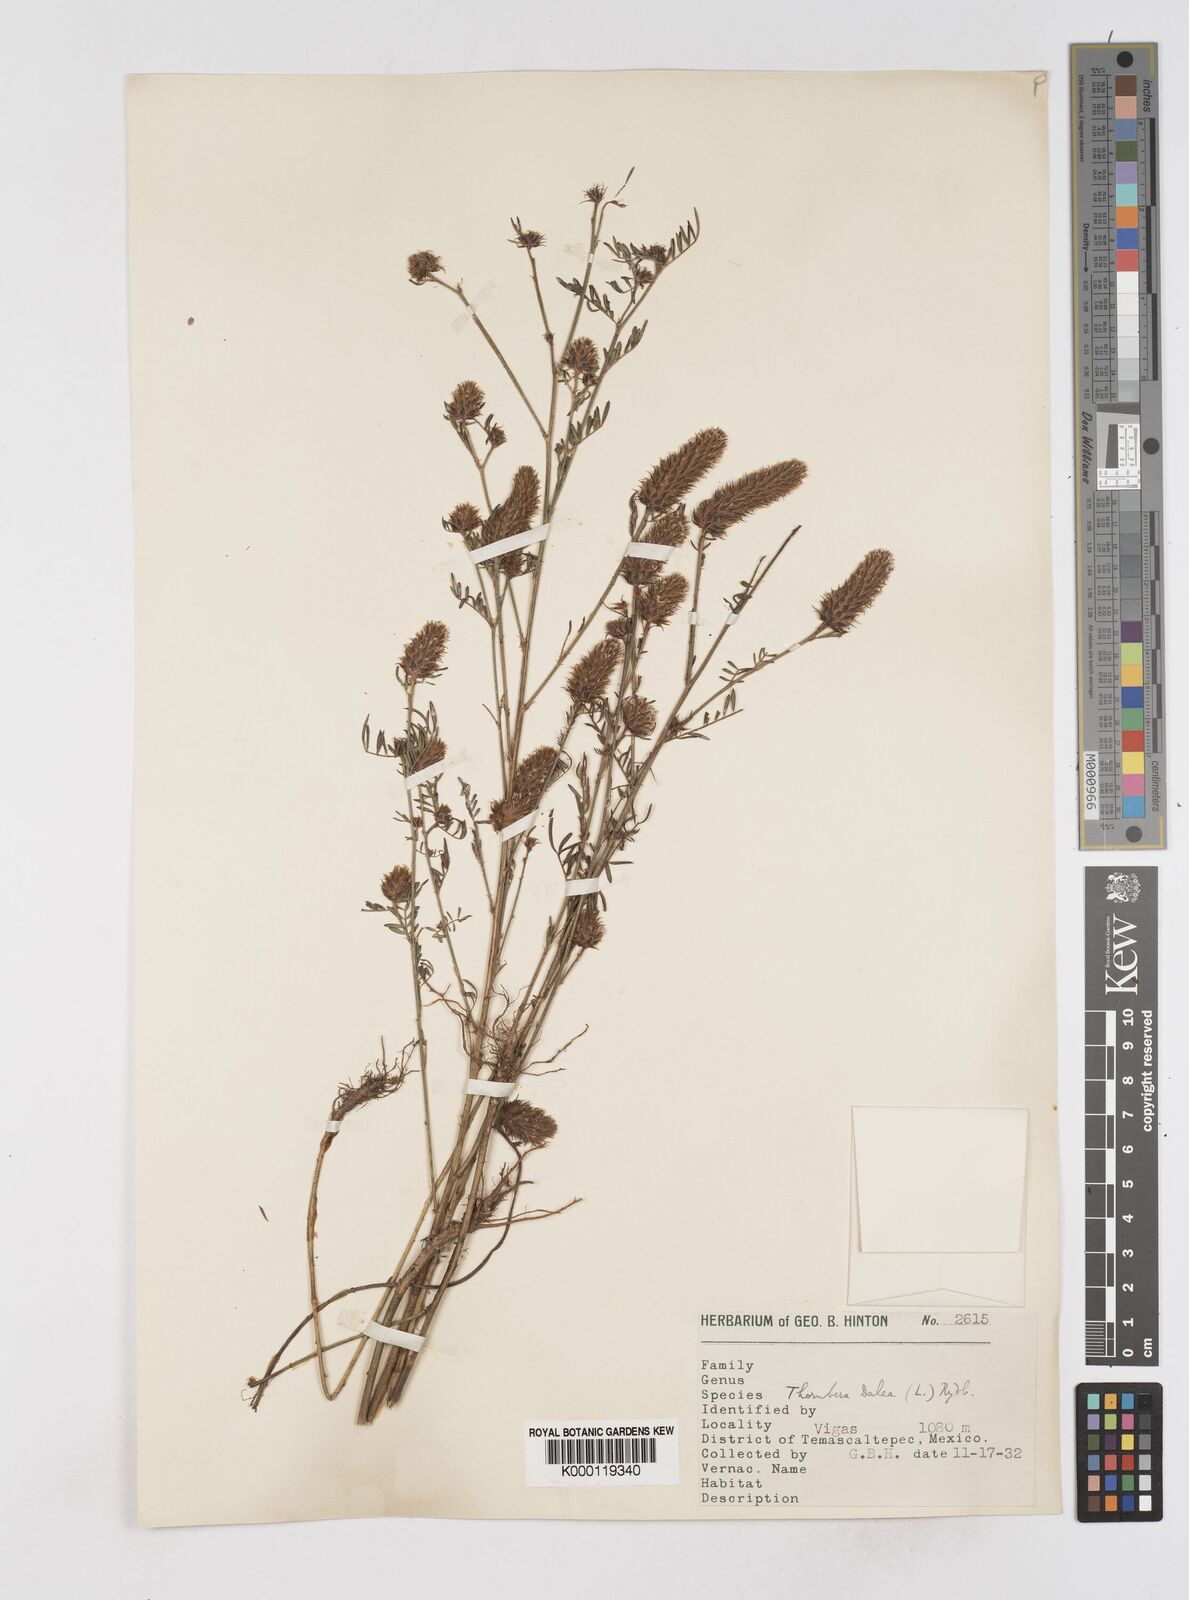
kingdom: Plantae
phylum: Tracheophyta
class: Magnoliopsida
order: Fabales
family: Fabaceae
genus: Dalea
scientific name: Dalea cliffortiana
